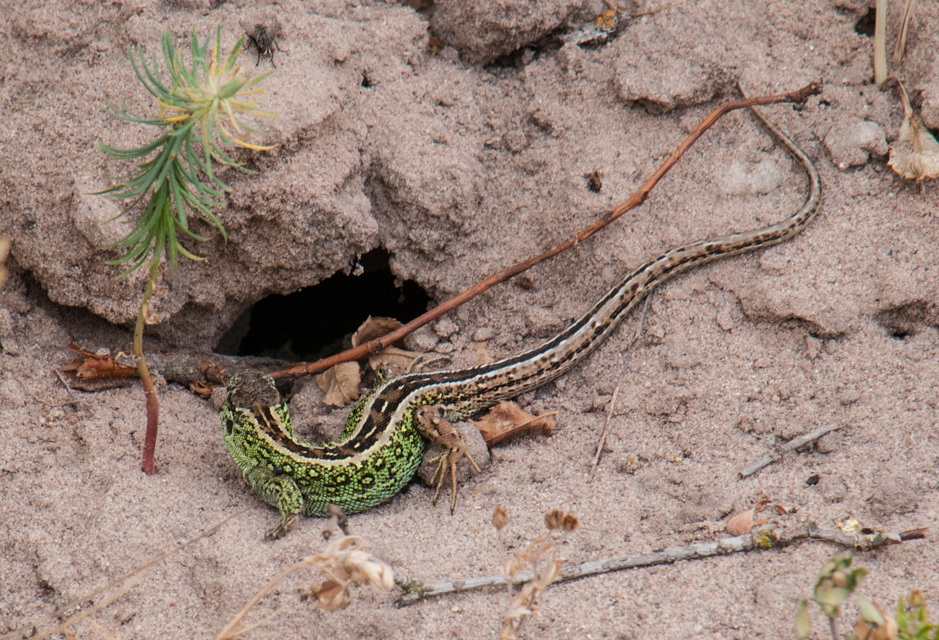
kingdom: Animalia
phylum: Chordata
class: Squamata
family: Lacertidae
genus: Lacerta
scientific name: Lacerta agilis
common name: Sand lizard
